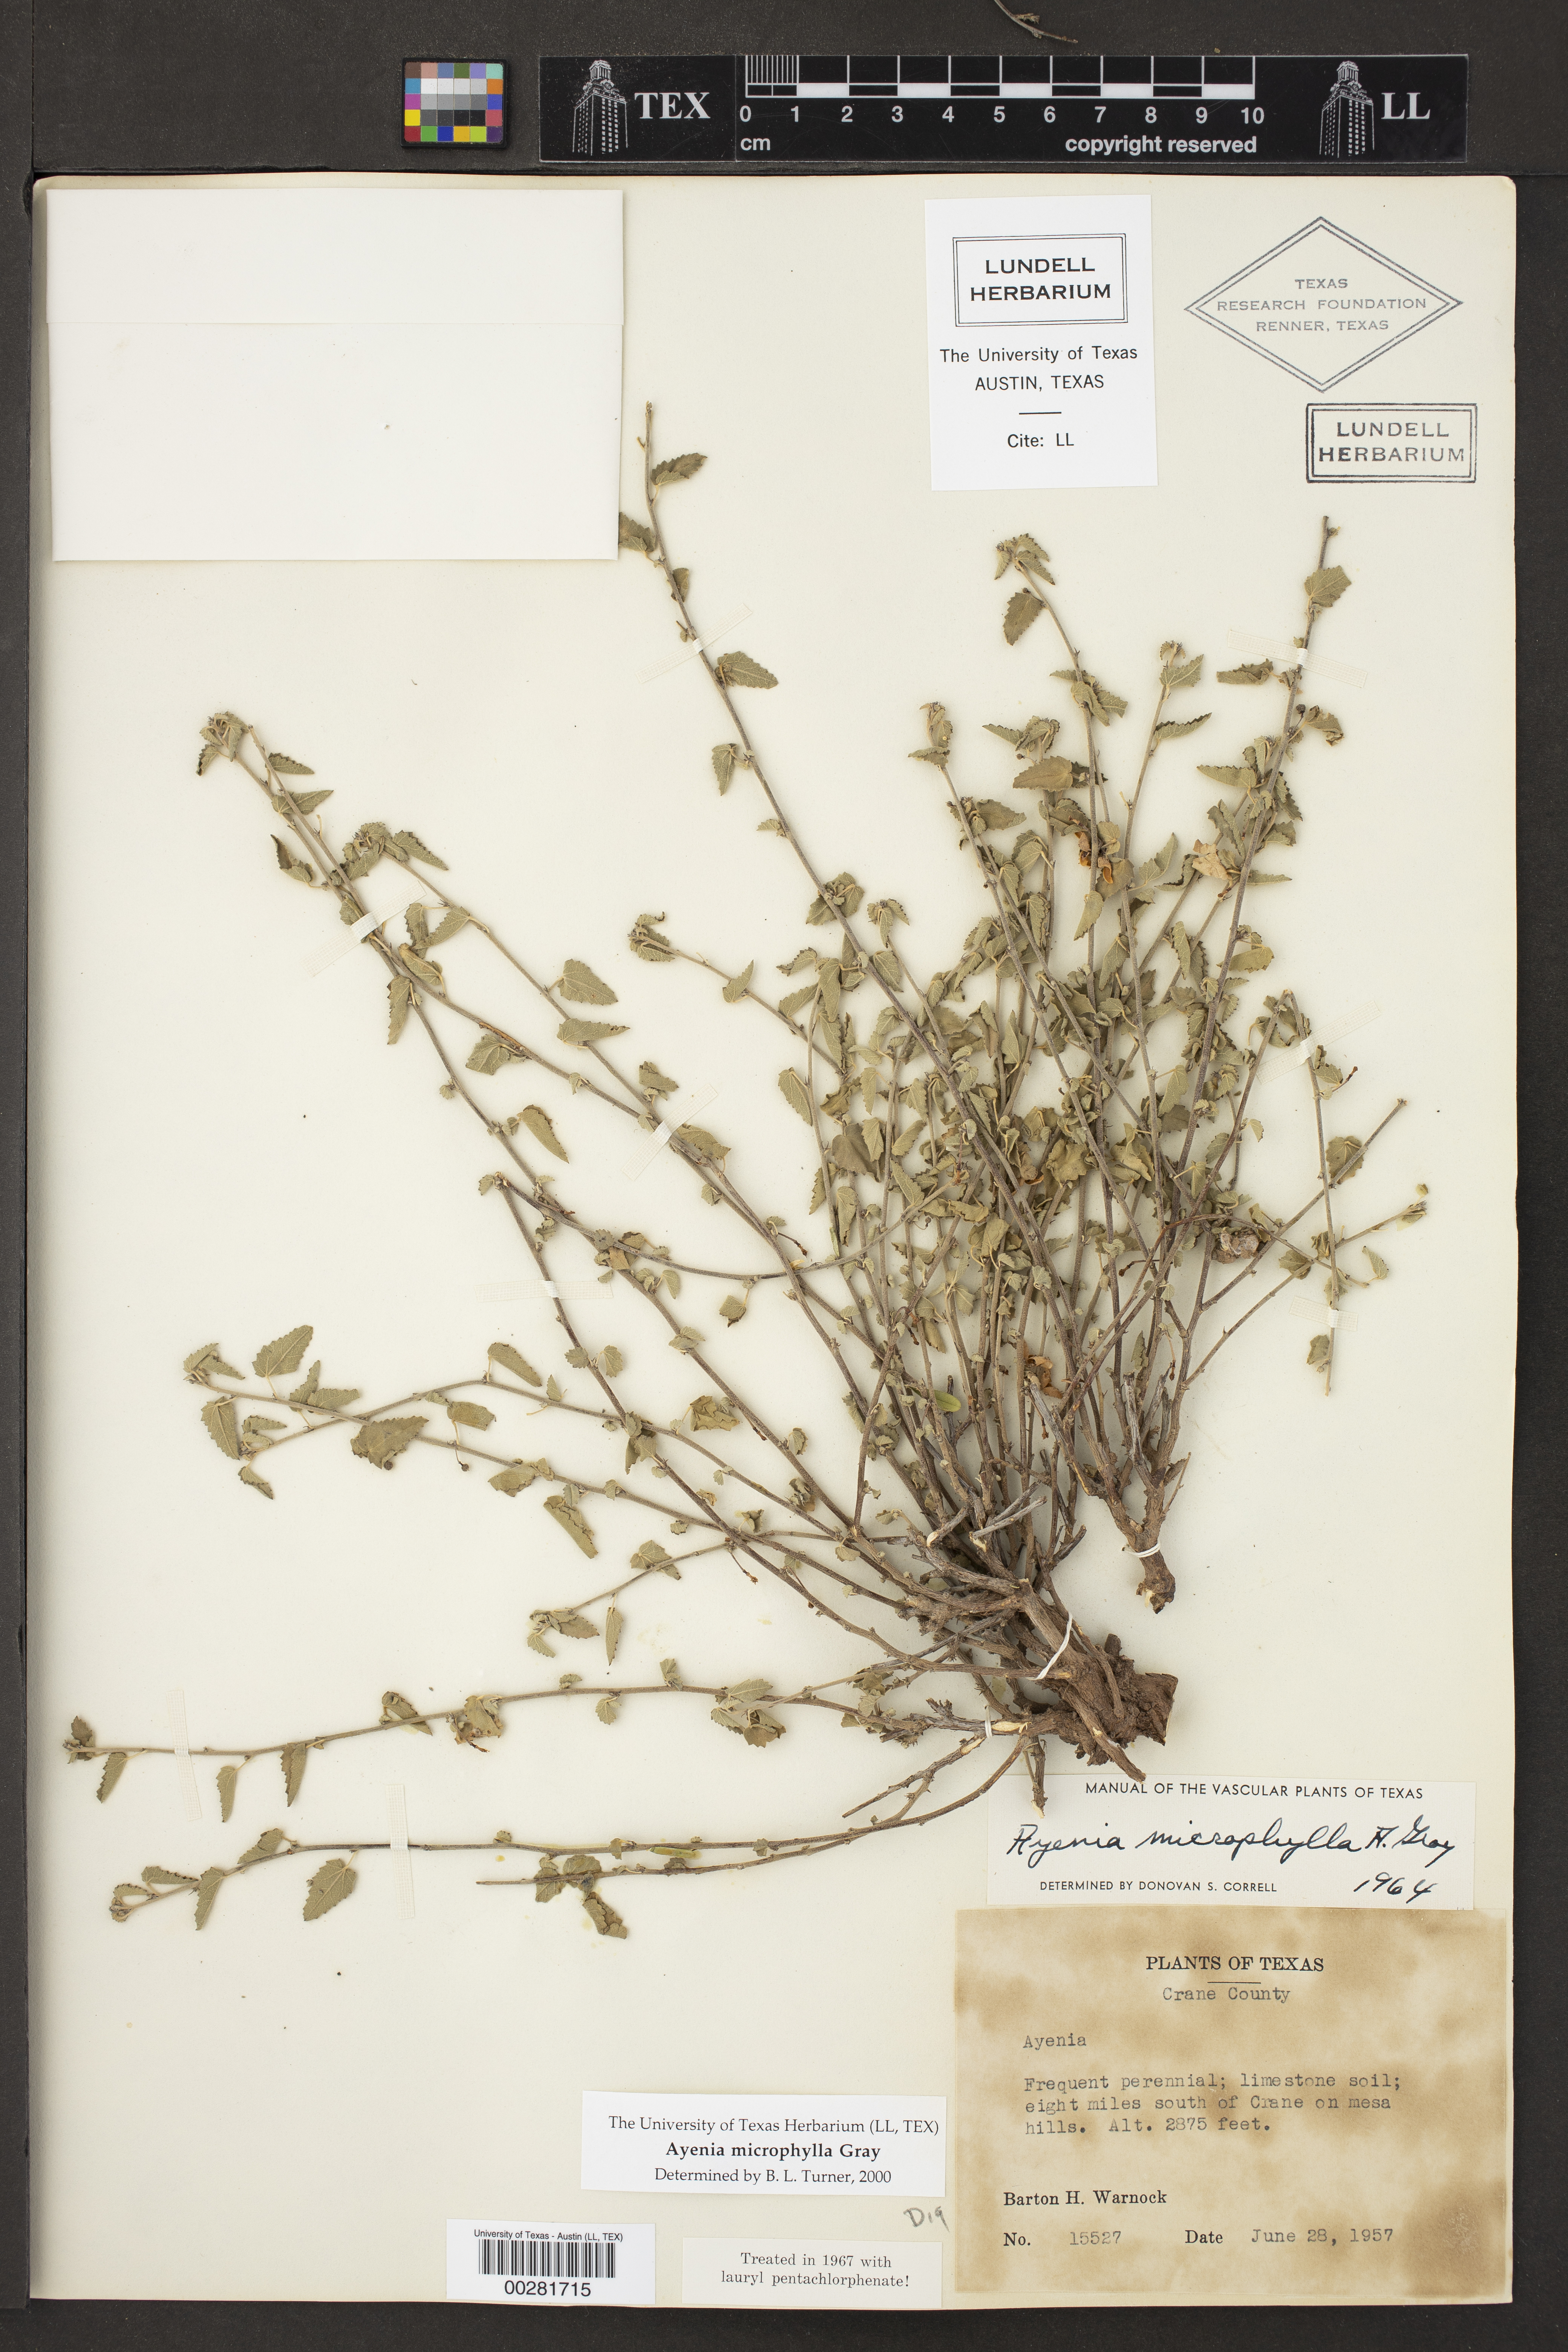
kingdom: Plantae
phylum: Tracheophyta
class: Magnoliopsida
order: Malvales
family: Malvaceae
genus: Ayenia
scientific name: Ayenia microphylla
